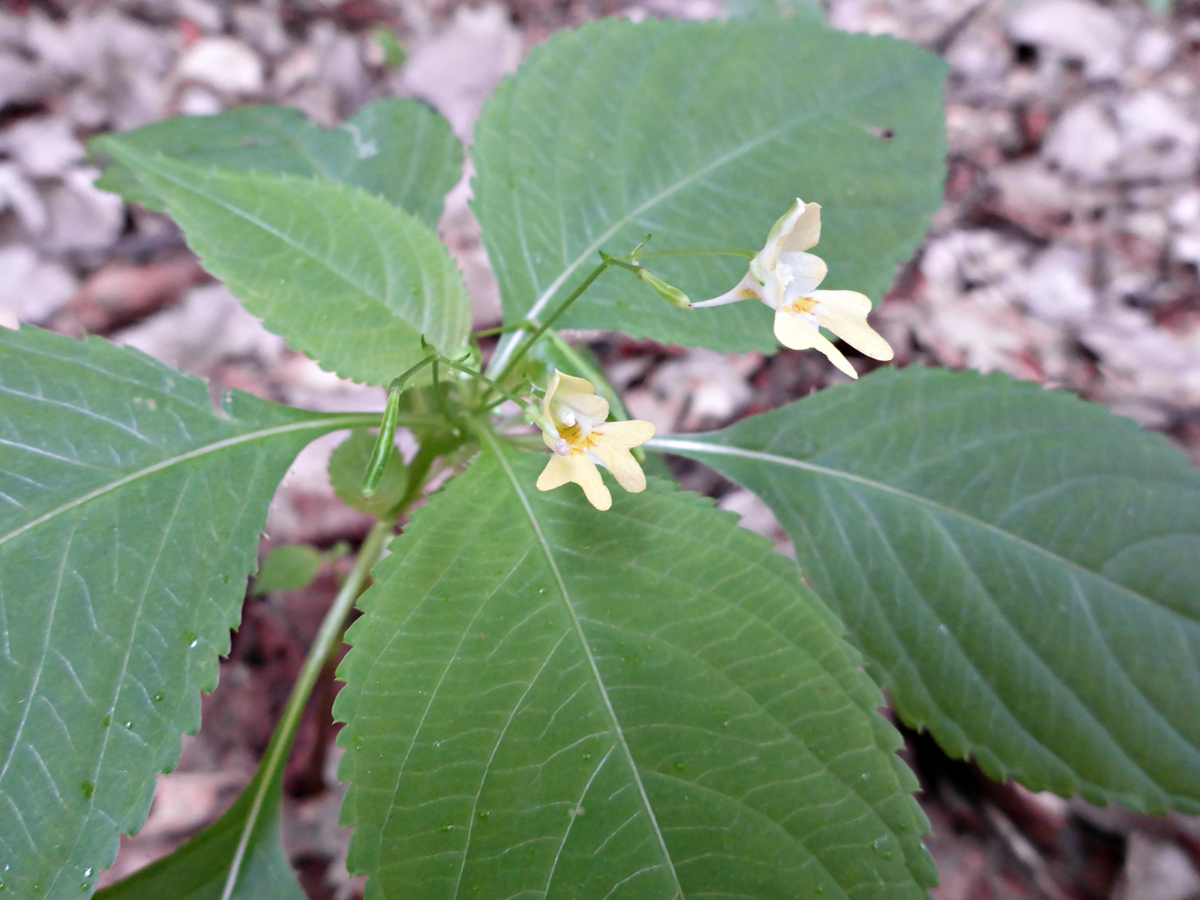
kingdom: Plantae
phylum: Tracheophyta
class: Magnoliopsida
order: Ericales
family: Balsaminaceae
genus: Impatiens
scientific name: Impatiens parviflora
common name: Small balsam
